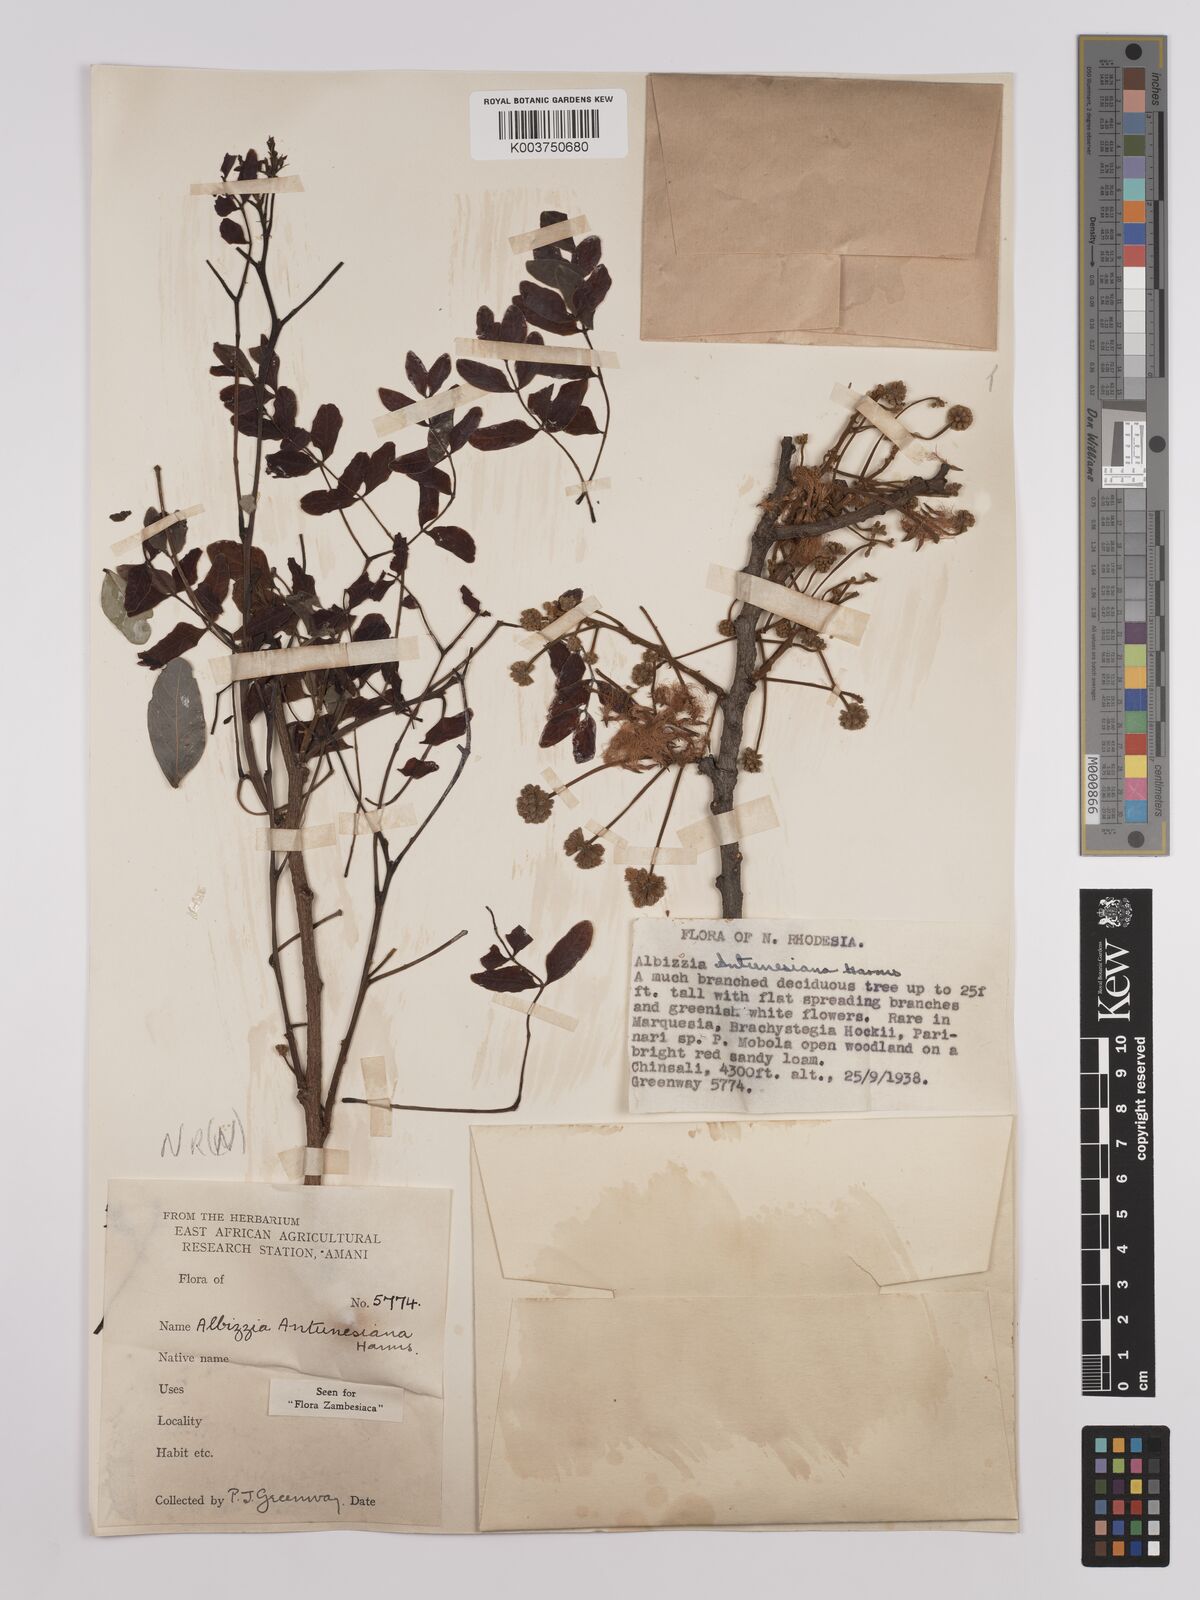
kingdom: Plantae
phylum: Tracheophyta
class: Magnoliopsida
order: Fabales
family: Fabaceae
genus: Albizia
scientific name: Albizia antunesiana
